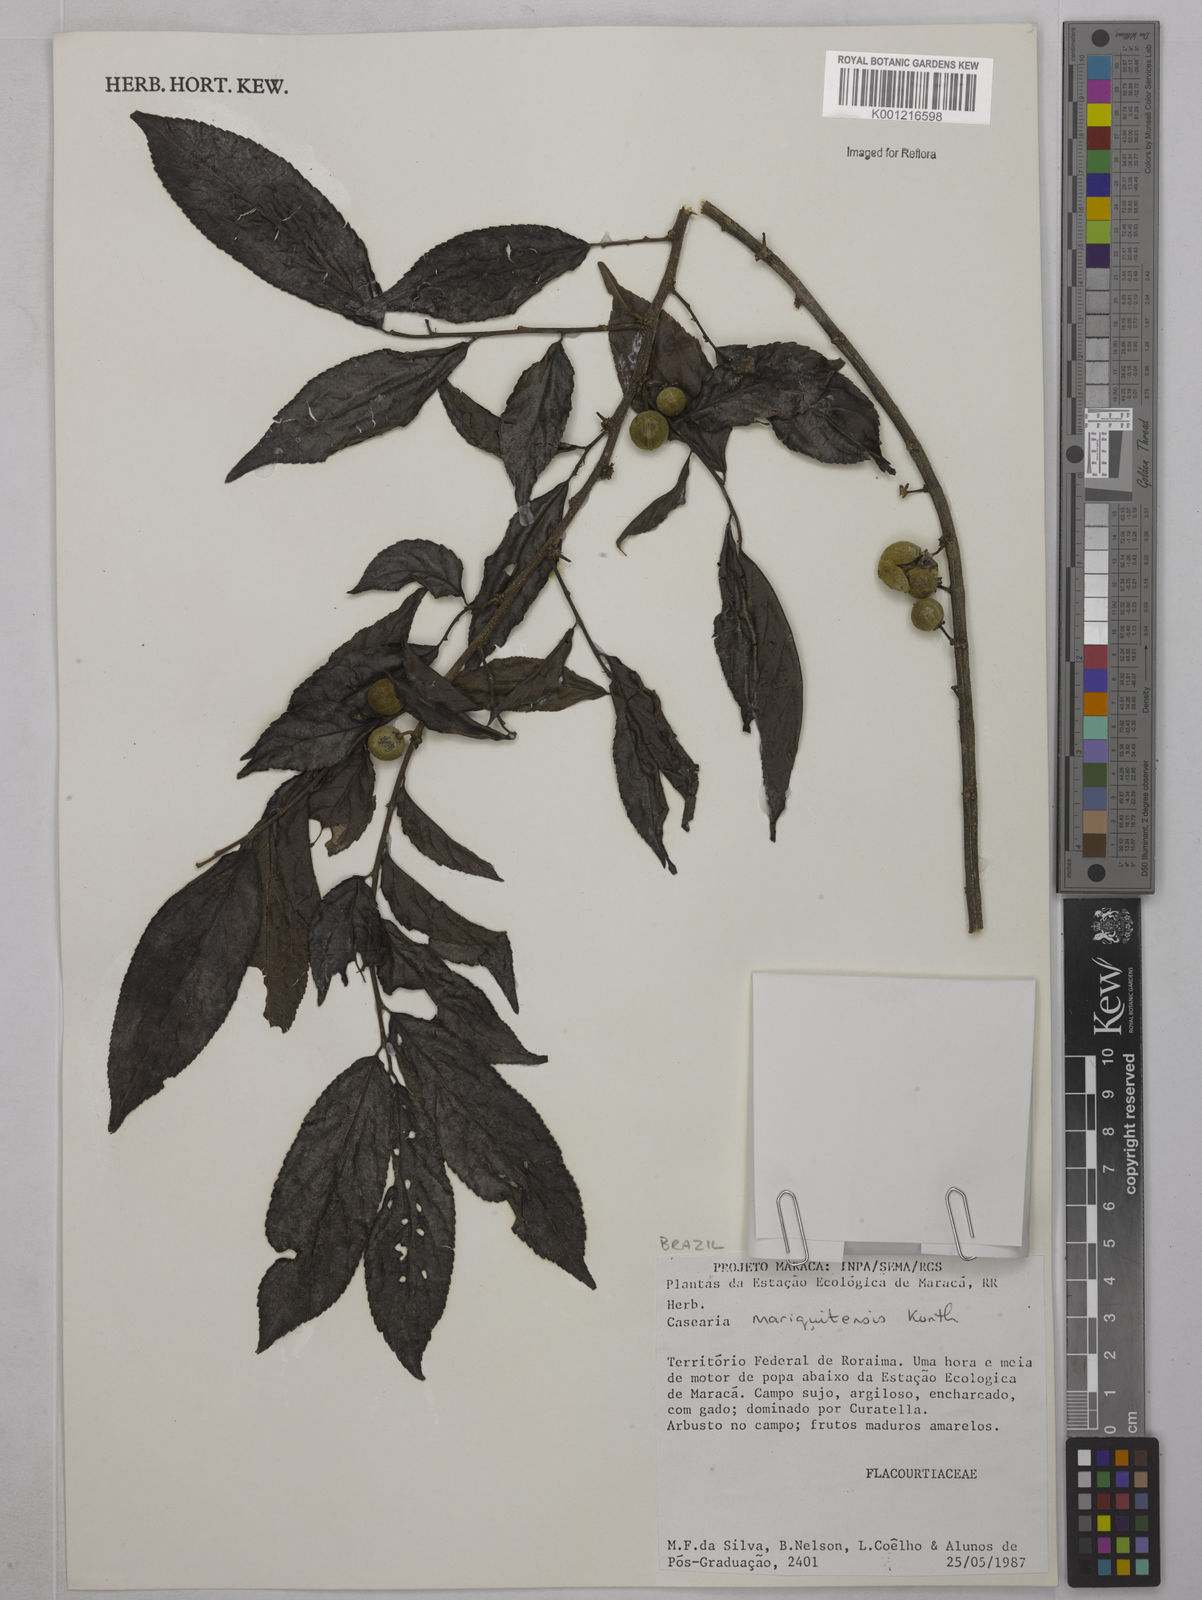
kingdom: Plantae
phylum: Tracheophyta
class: Magnoliopsida
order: Malpighiales
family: Salicaceae
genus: Casearia
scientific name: Casearia mariquitensis
